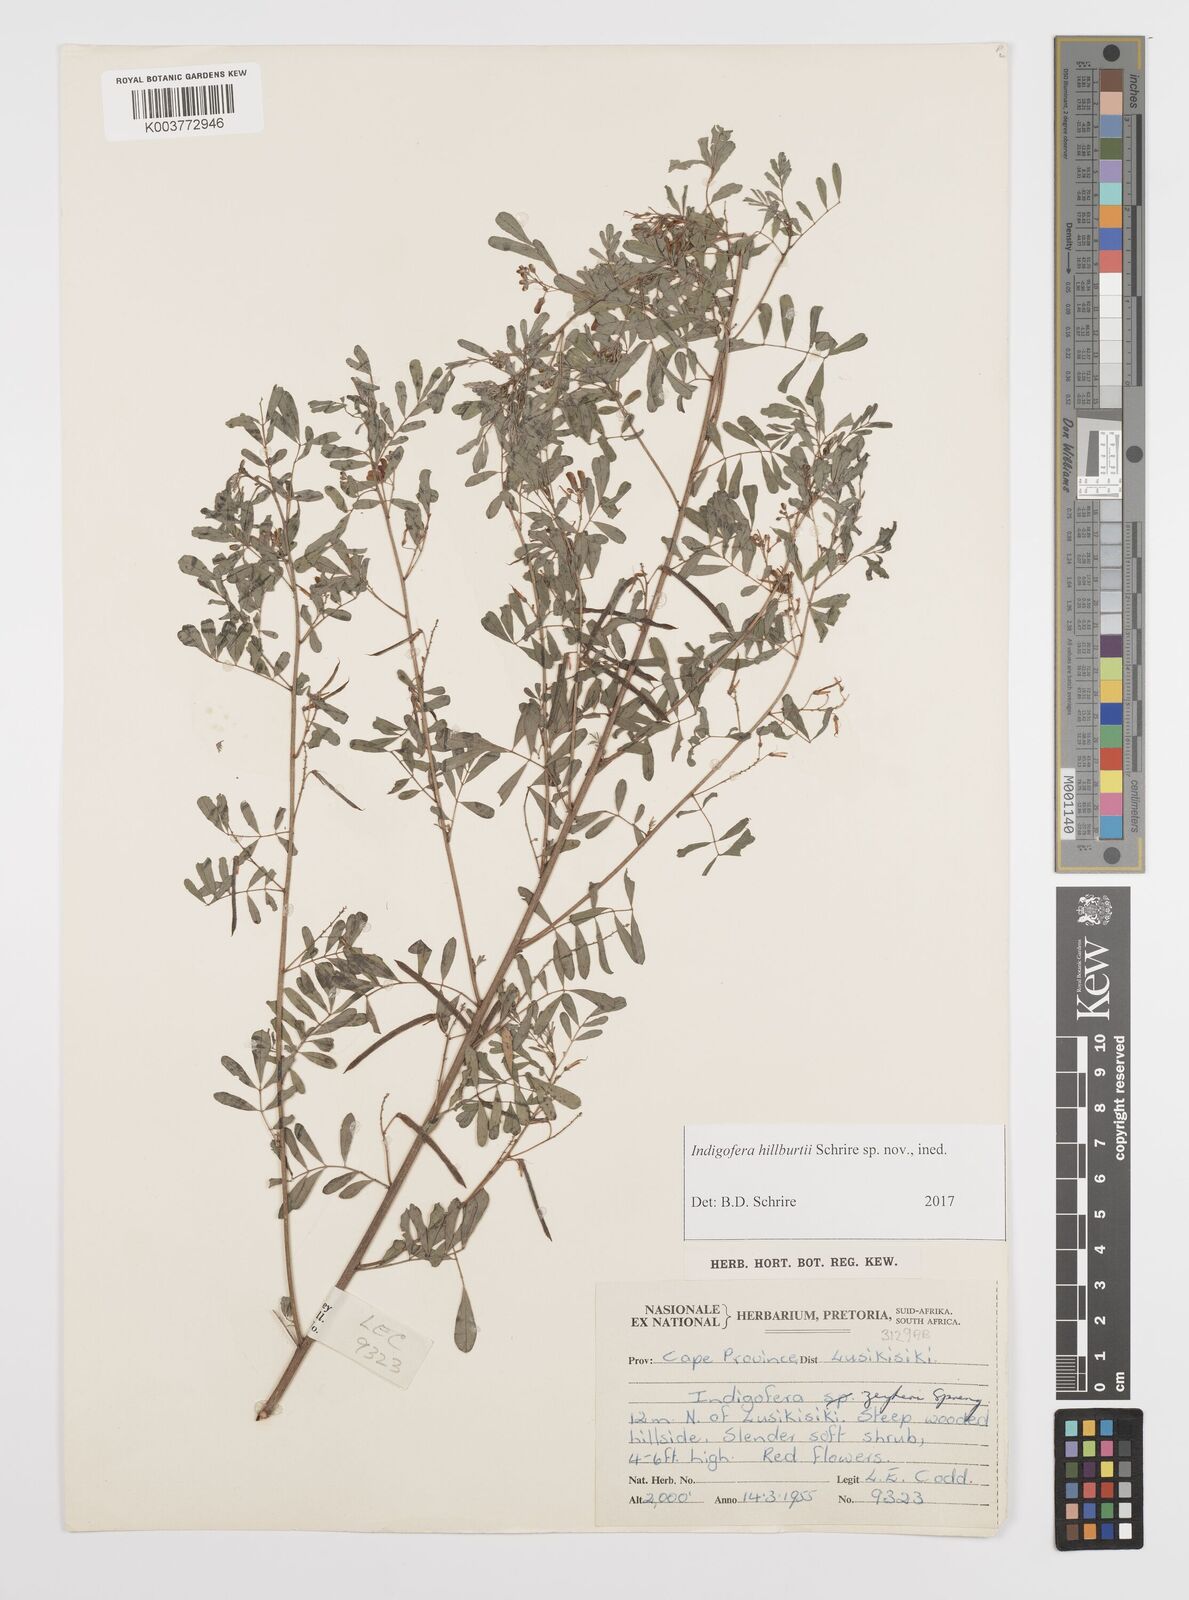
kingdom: Plantae
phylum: Tracheophyta
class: Magnoliopsida
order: Fabales
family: Fabaceae
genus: Indigofera
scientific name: Indigofera
